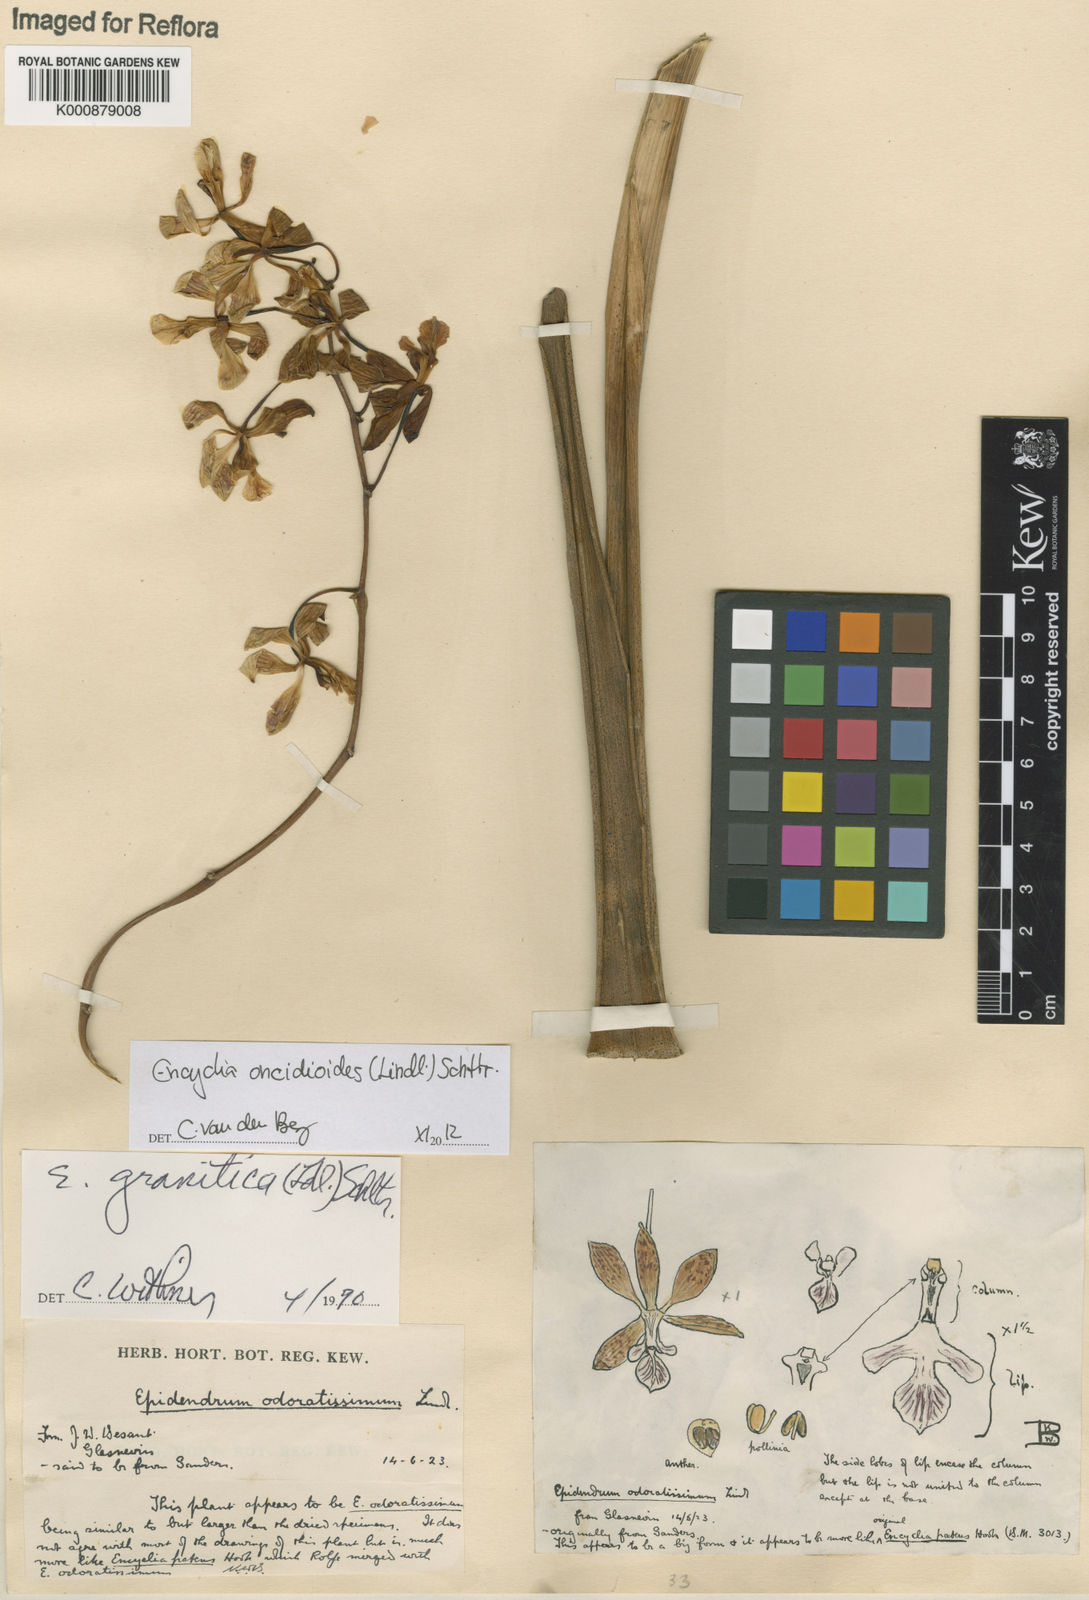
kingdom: Plantae
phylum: Tracheophyta
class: Liliopsida
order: Asparagales
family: Orchidaceae
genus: Encyclia
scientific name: Encyclia oncidioides
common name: Heavyfruit butterfly orchid
